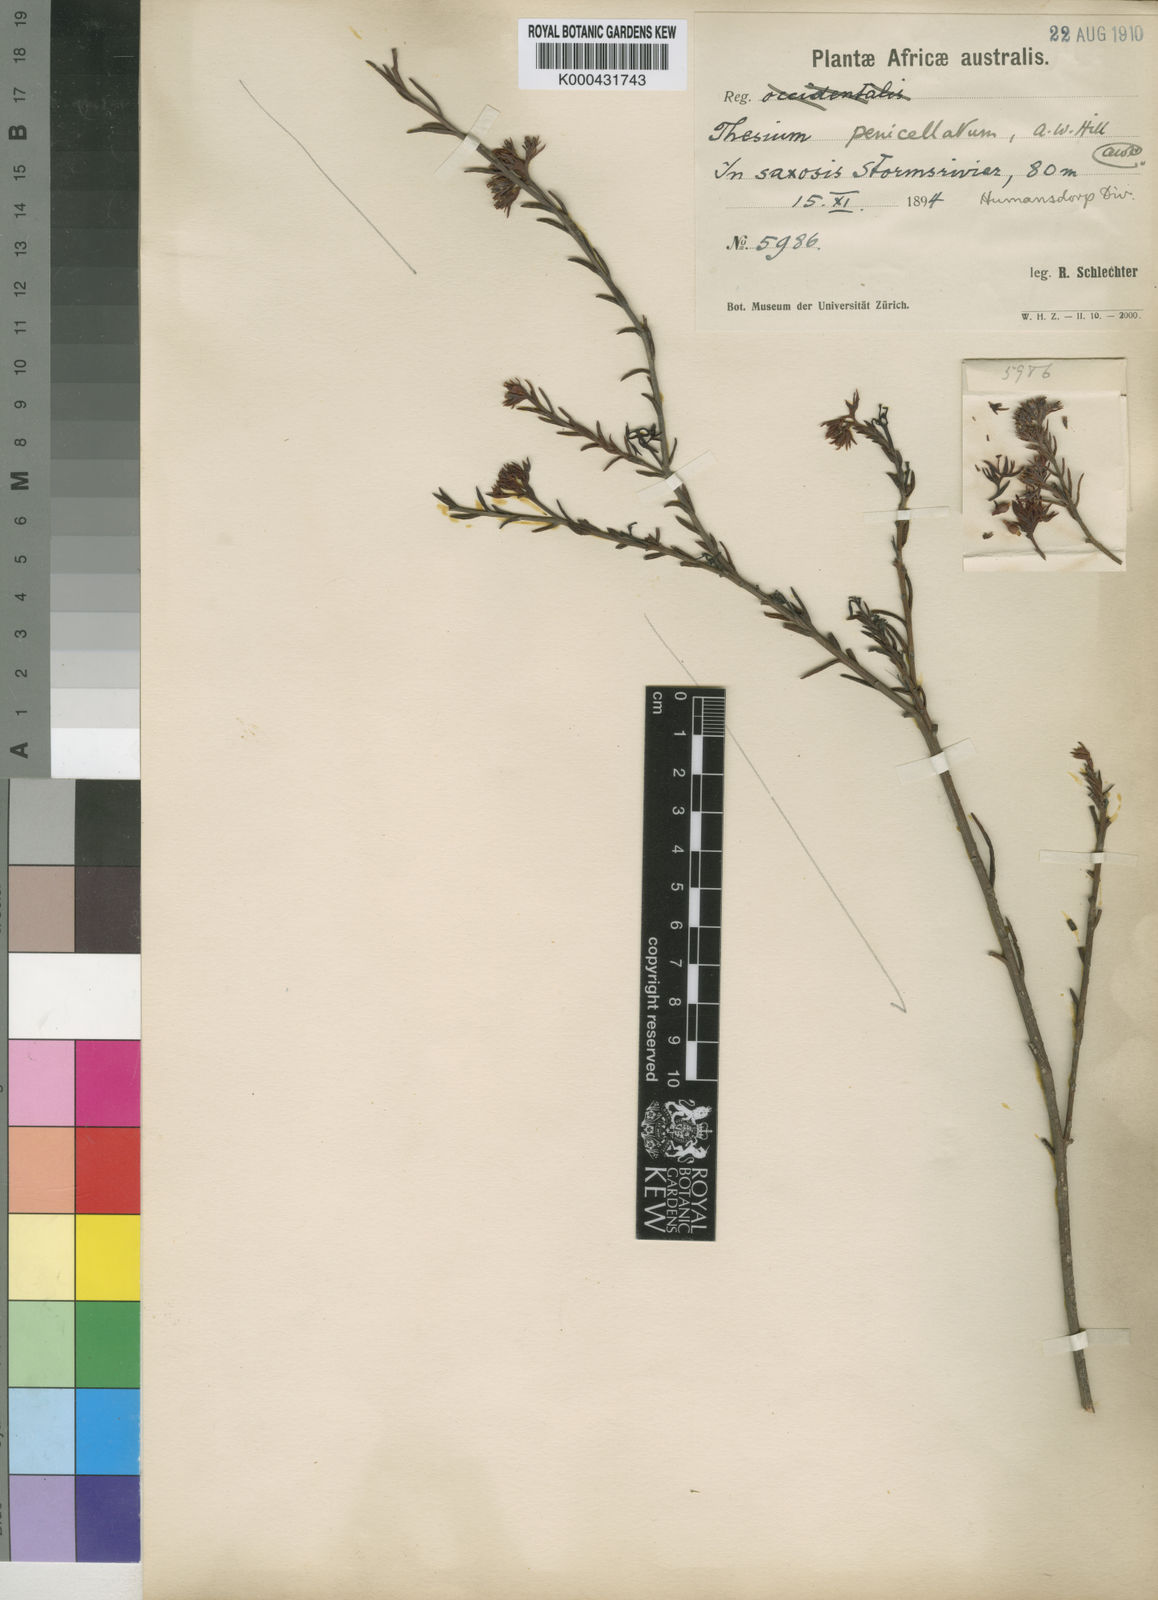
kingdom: Plantae
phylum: Tracheophyta
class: Magnoliopsida
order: Santalales
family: Thesiaceae
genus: Thesium
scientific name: Thesium penicillatum
